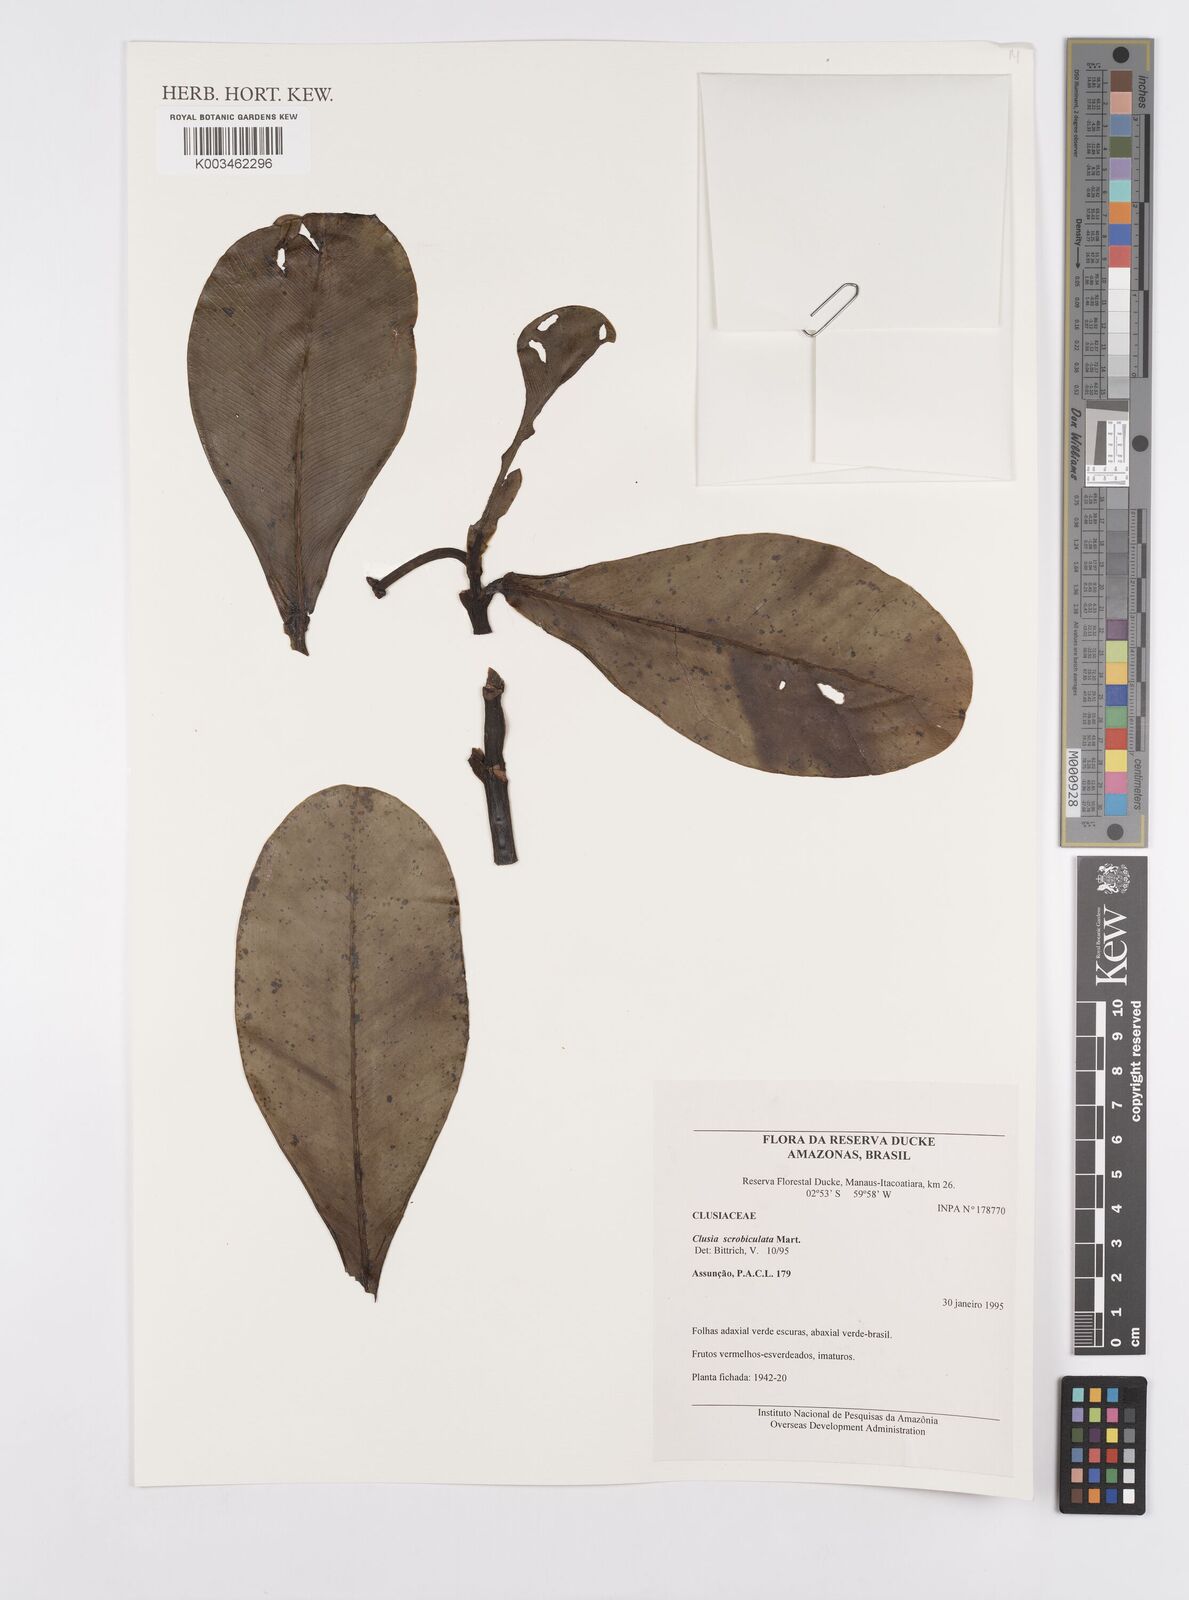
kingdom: Plantae
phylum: Tracheophyta
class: Magnoliopsida
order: Malpighiales
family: Clusiaceae
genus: Clusia
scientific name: Clusia scrobiculata
